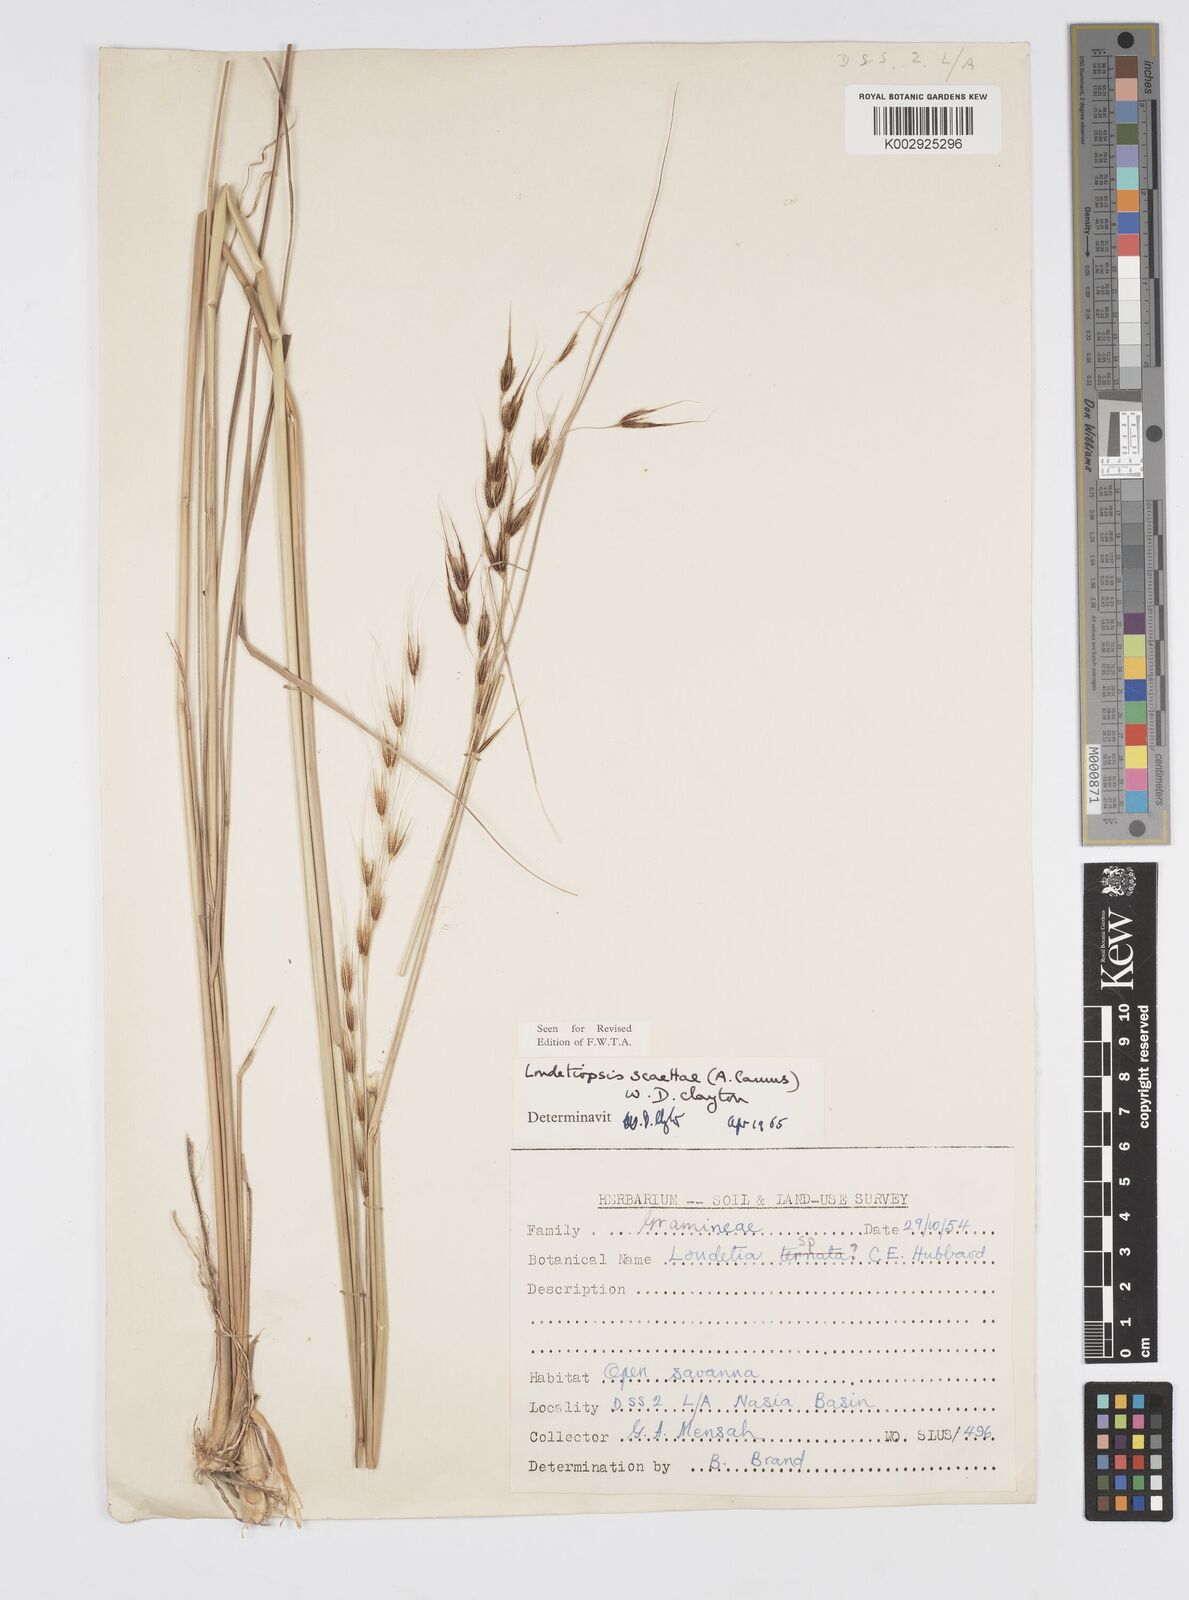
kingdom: Plantae
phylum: Tracheophyta
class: Liliopsida
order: Poales
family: Poaceae
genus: Loudetiopsis
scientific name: Loudetiopsis scaettae
